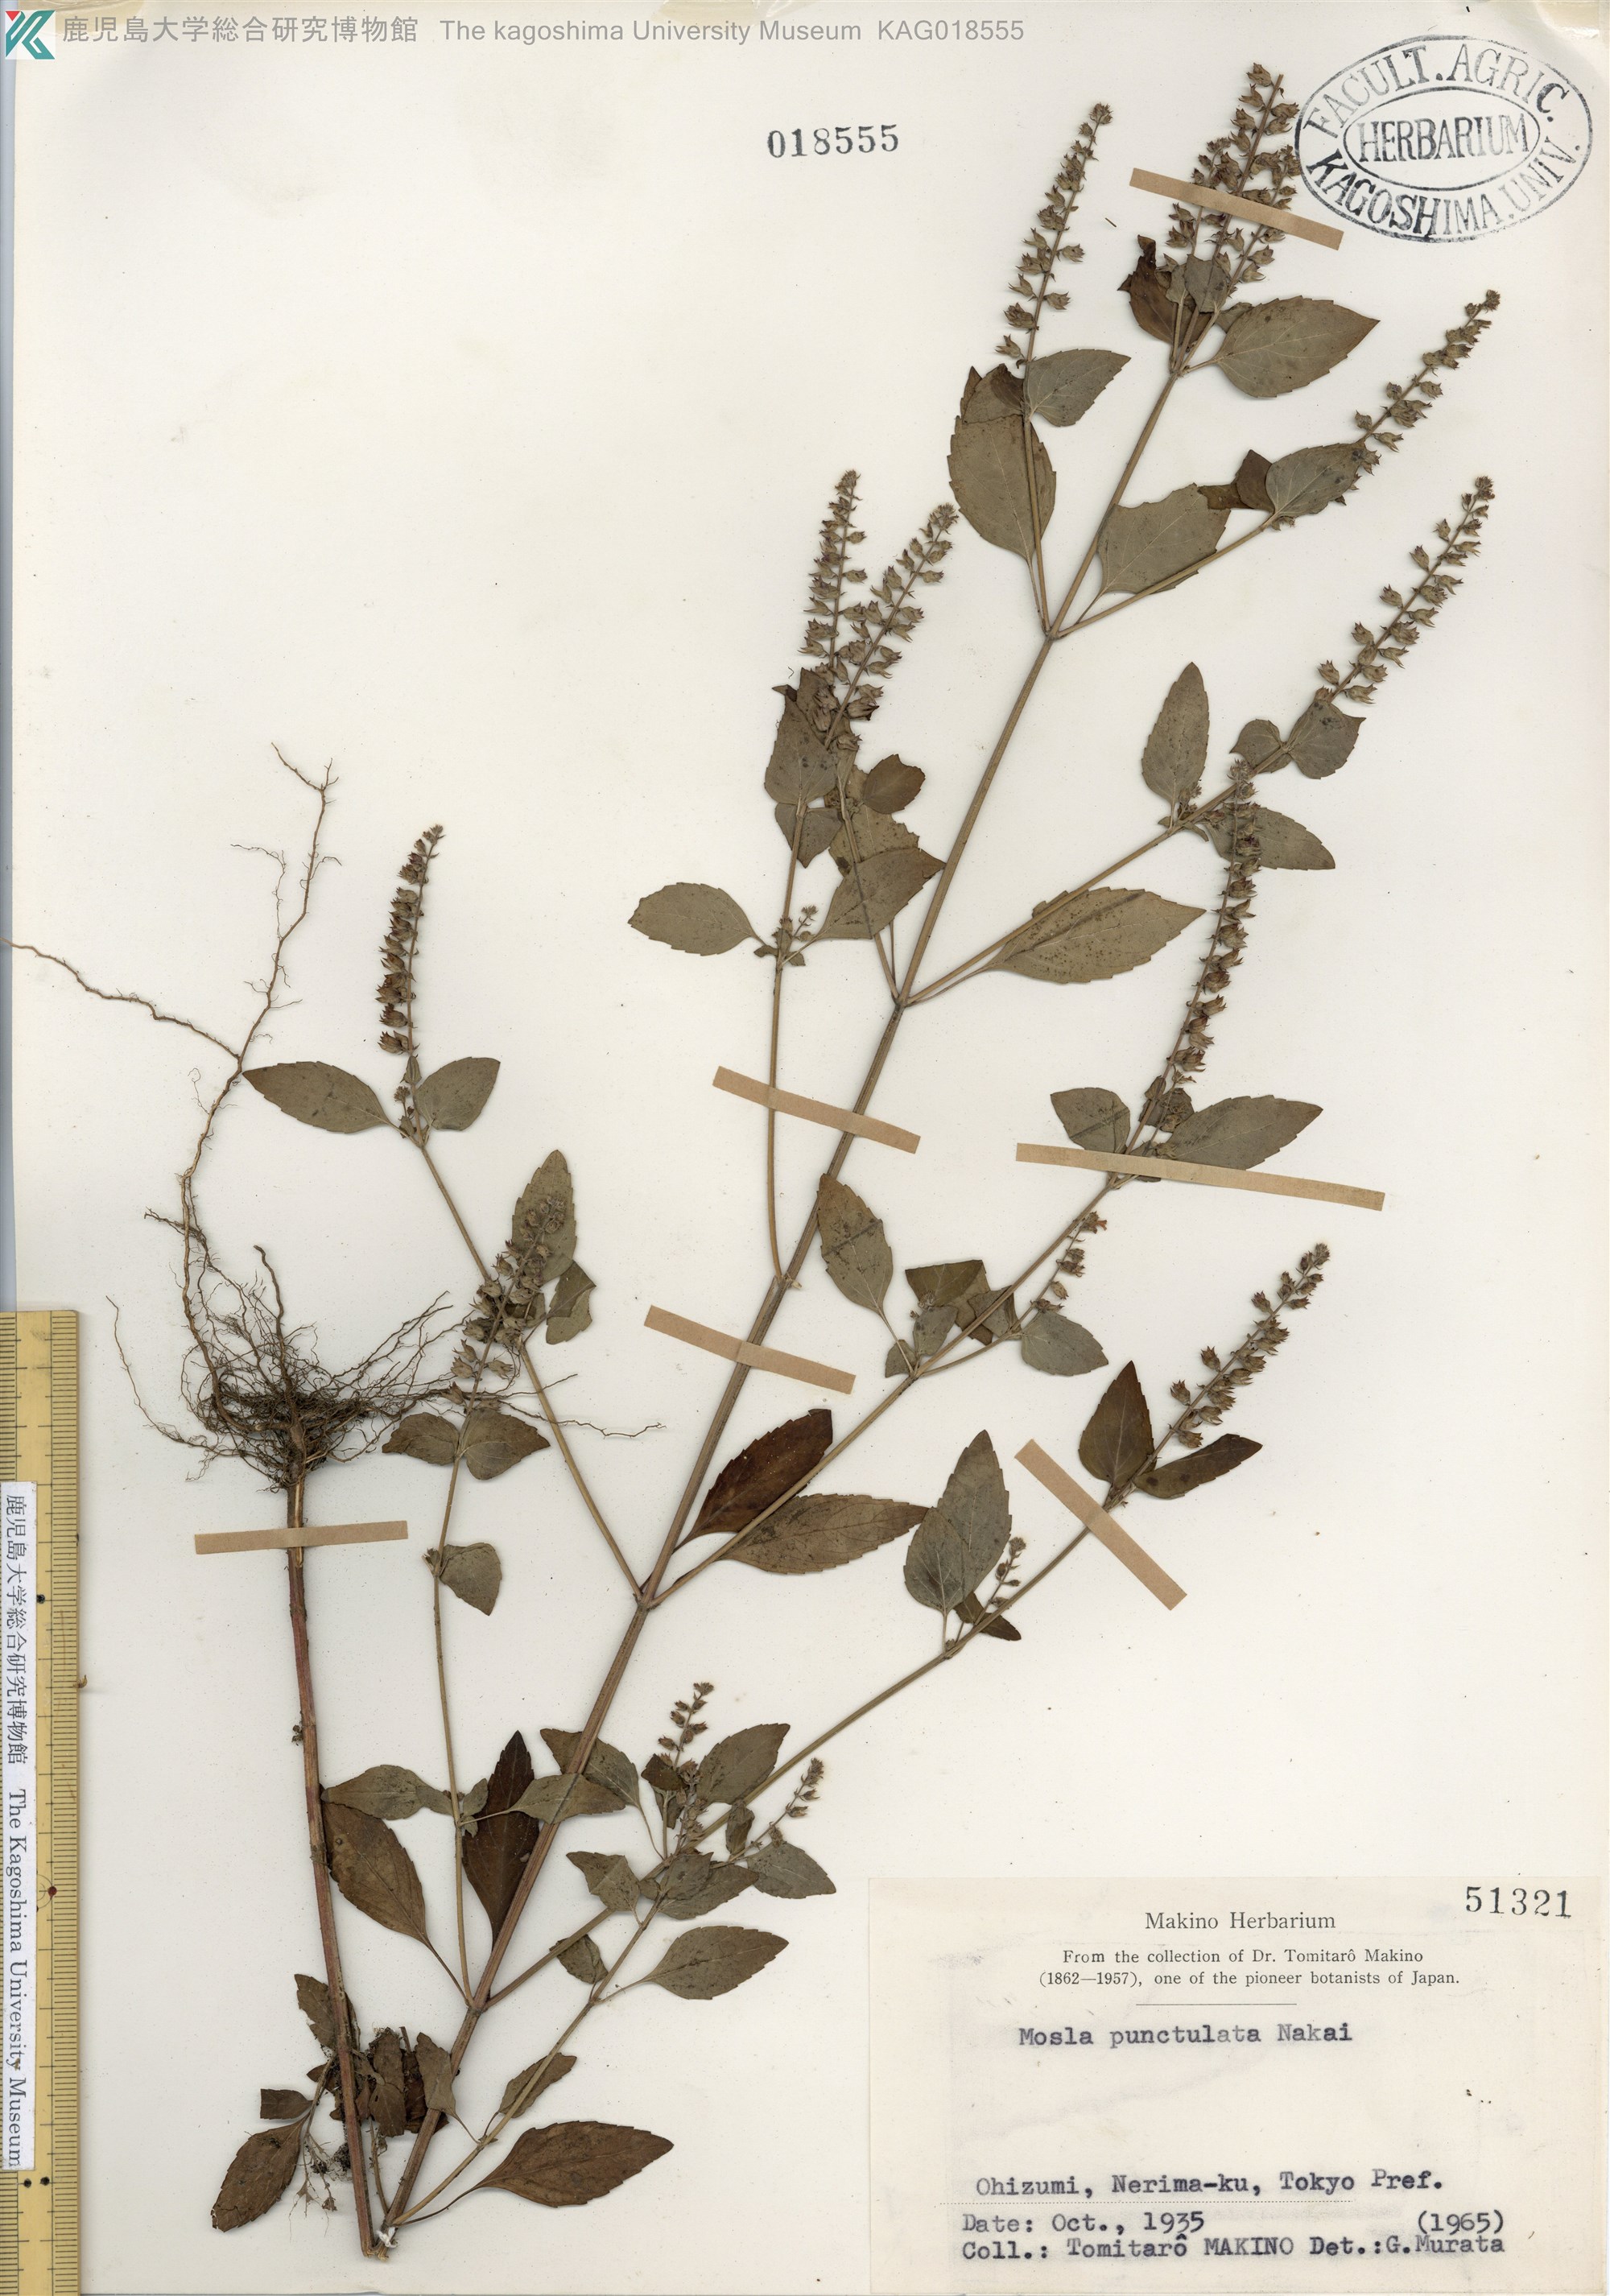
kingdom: Plantae
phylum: Tracheophyta
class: Magnoliopsida
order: Lamiales
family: Lamiaceae
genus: Mosla
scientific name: Mosla scabra
